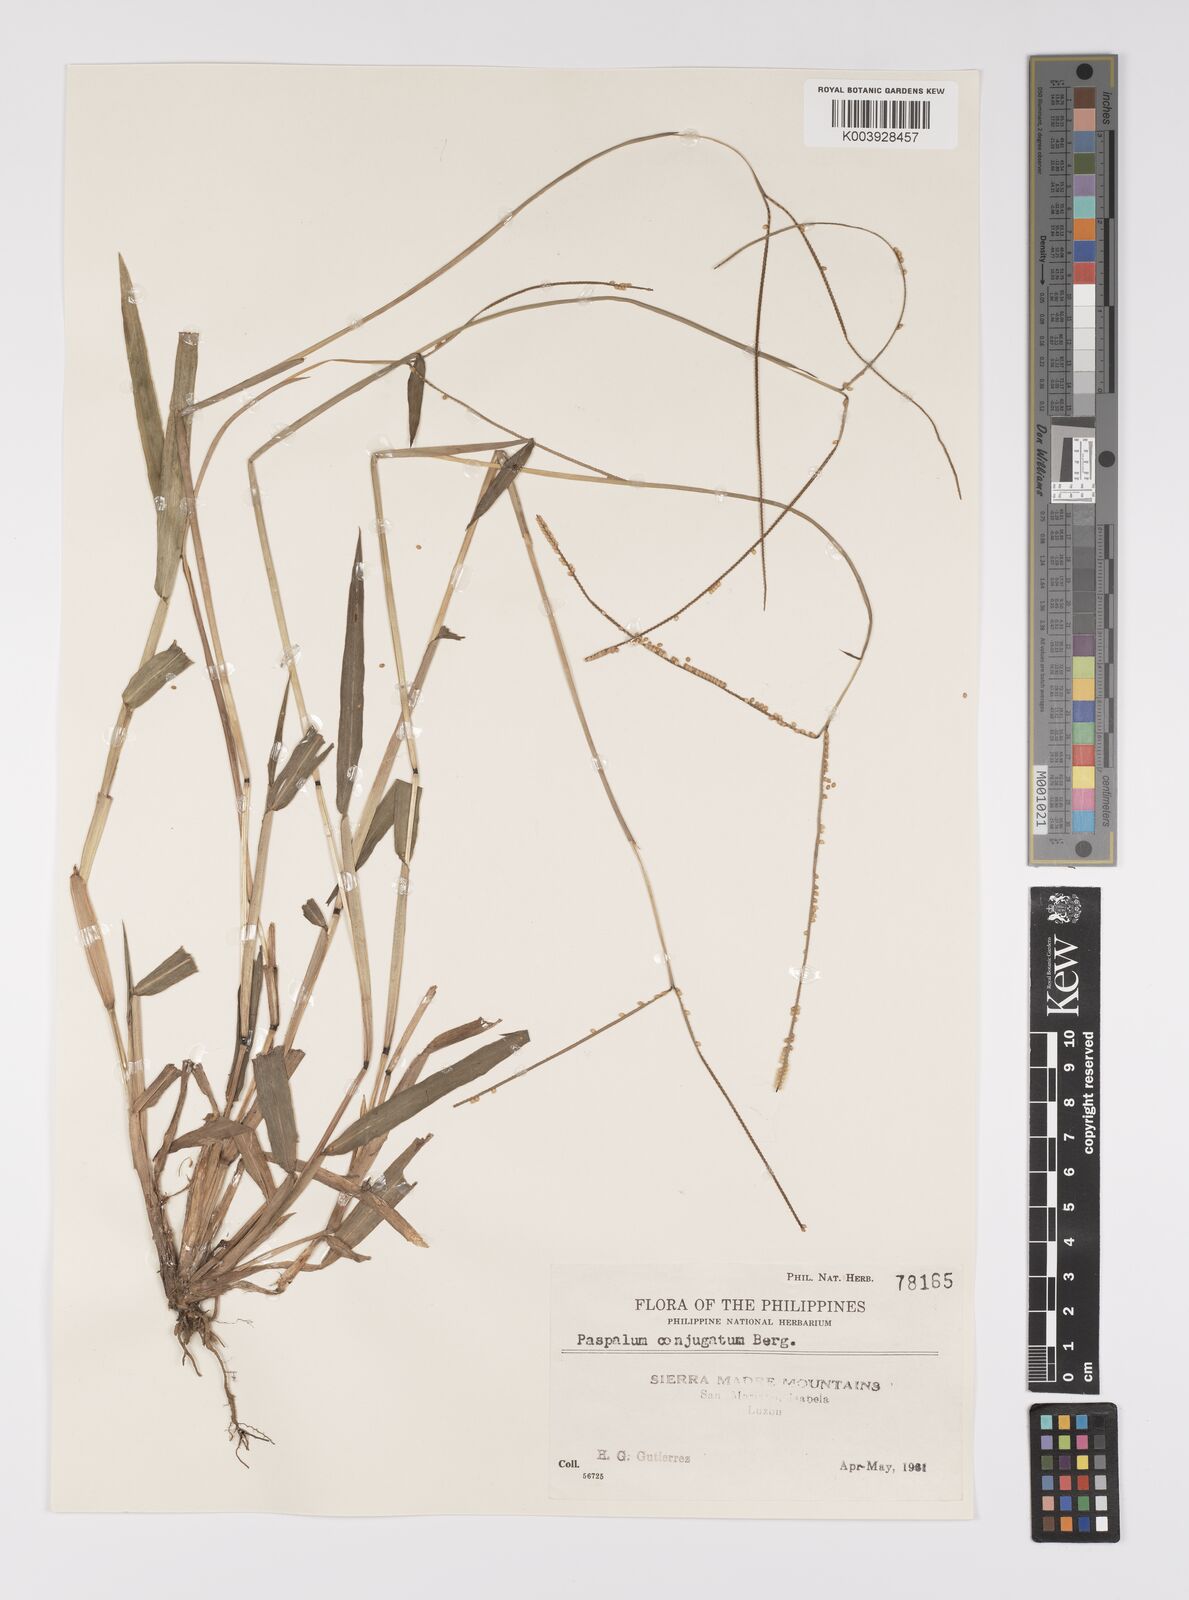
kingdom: Plantae
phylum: Tracheophyta
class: Liliopsida
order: Poales
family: Poaceae
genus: Paspalum
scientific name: Paspalum conjugatum
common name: Hilograss
